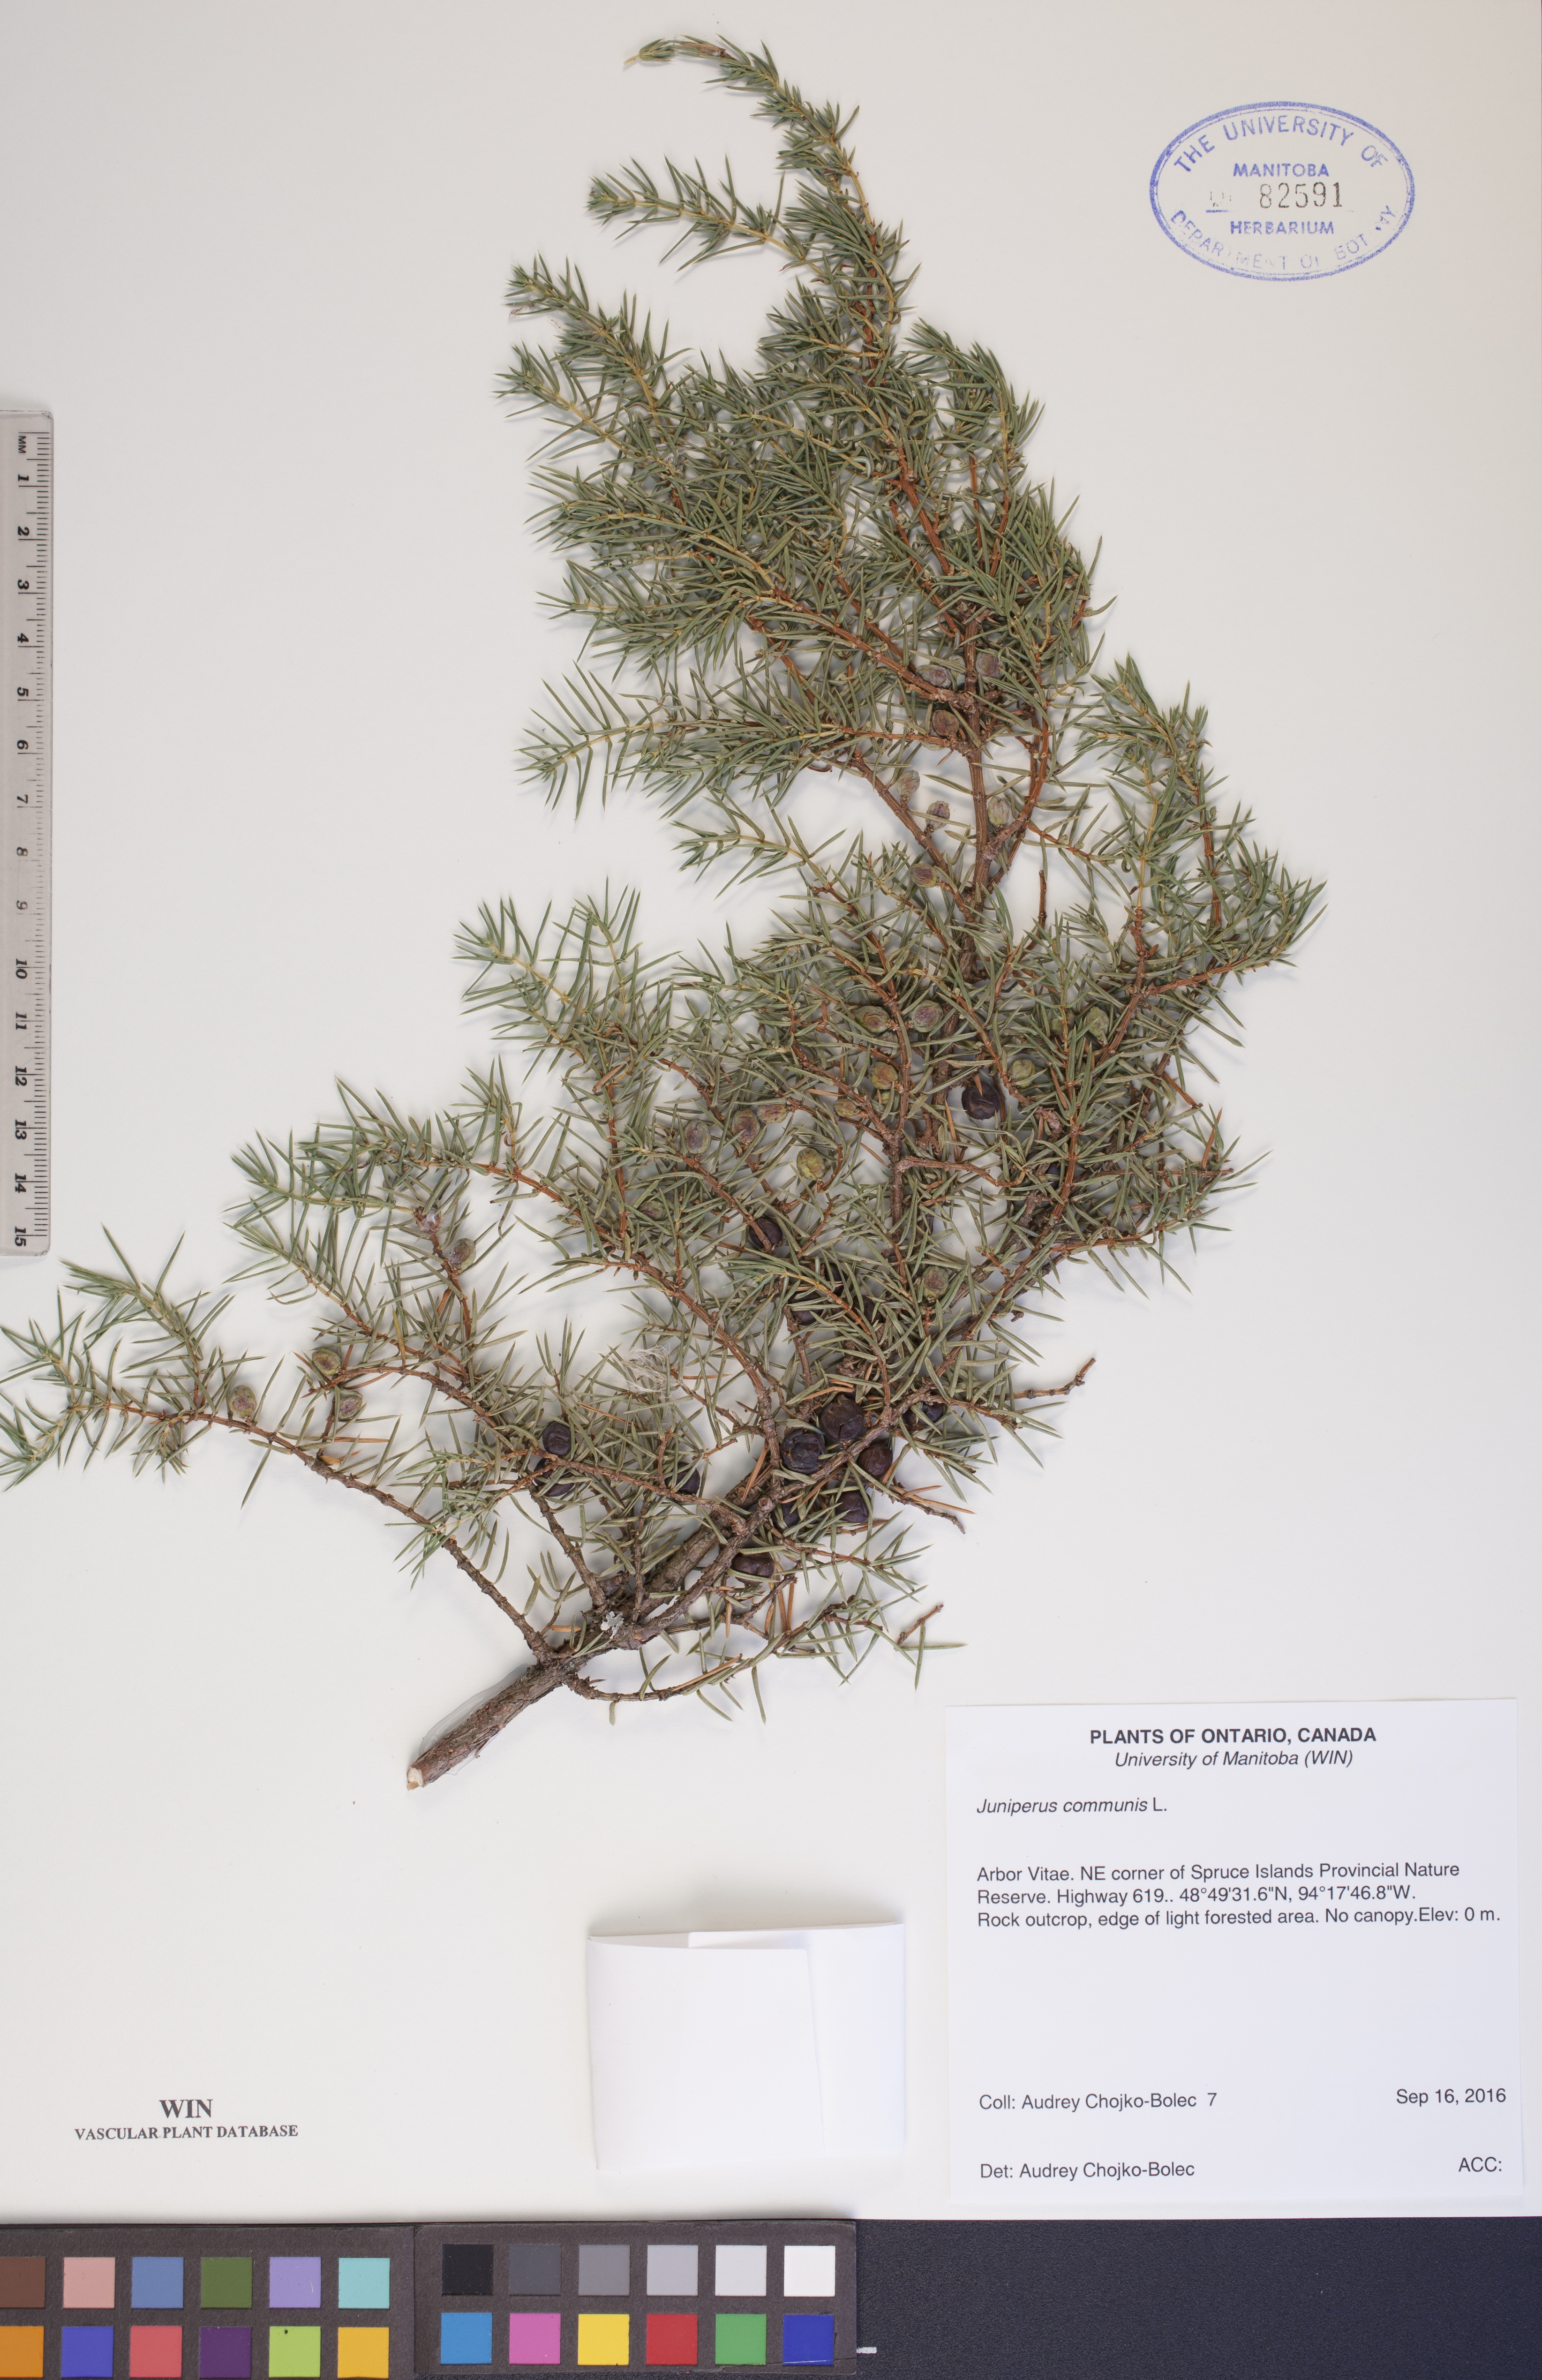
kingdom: Plantae
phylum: Tracheophyta
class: Pinopsida
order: Pinales
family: Cupressaceae
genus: Juniperus
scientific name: Juniperus communis
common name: Common juniper
